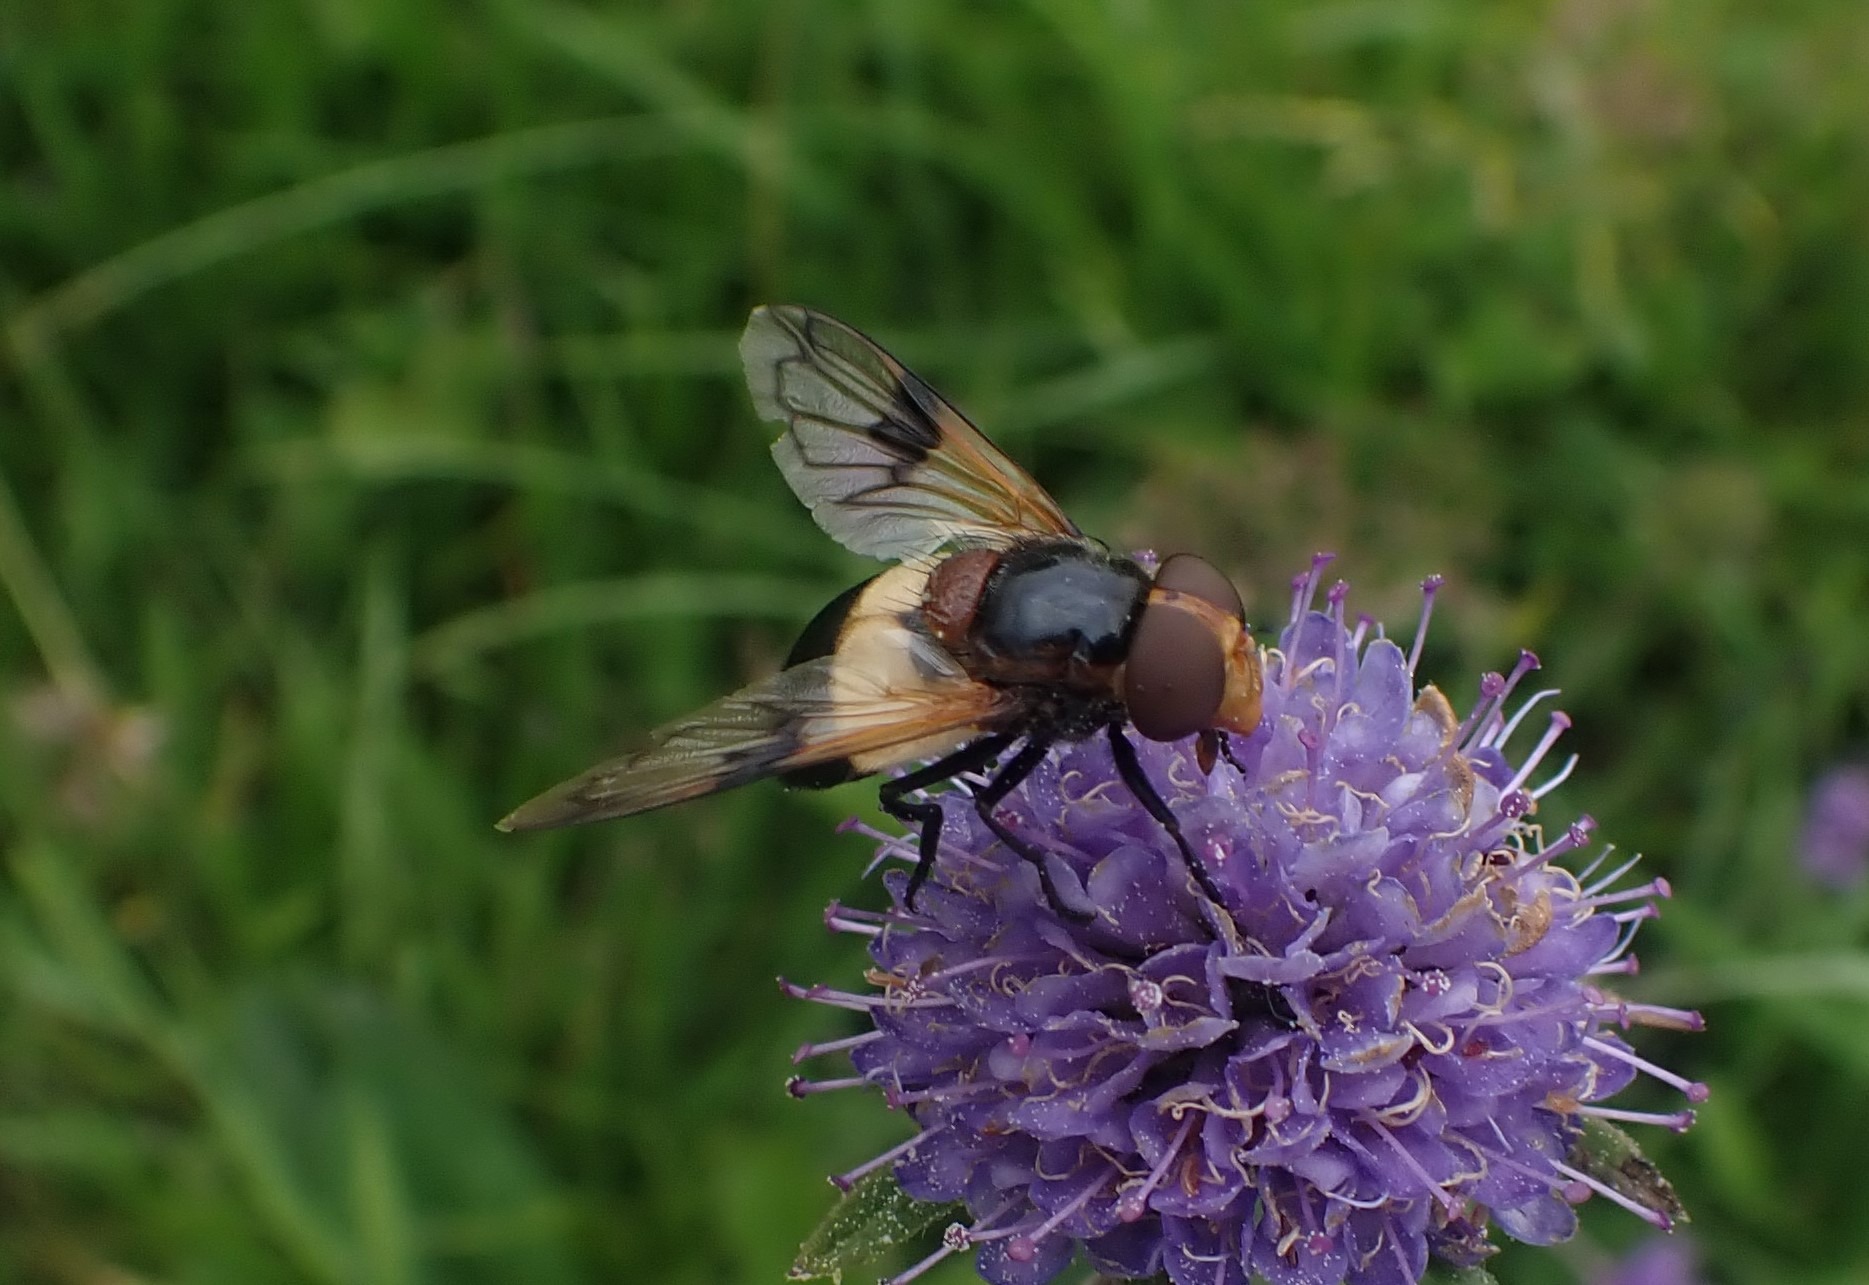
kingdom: Animalia
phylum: Arthropoda
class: Insecta
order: Diptera
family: Syrphidae
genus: Volucella
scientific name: Volucella pellucens
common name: Hvidbåndet humlesvirreflue
